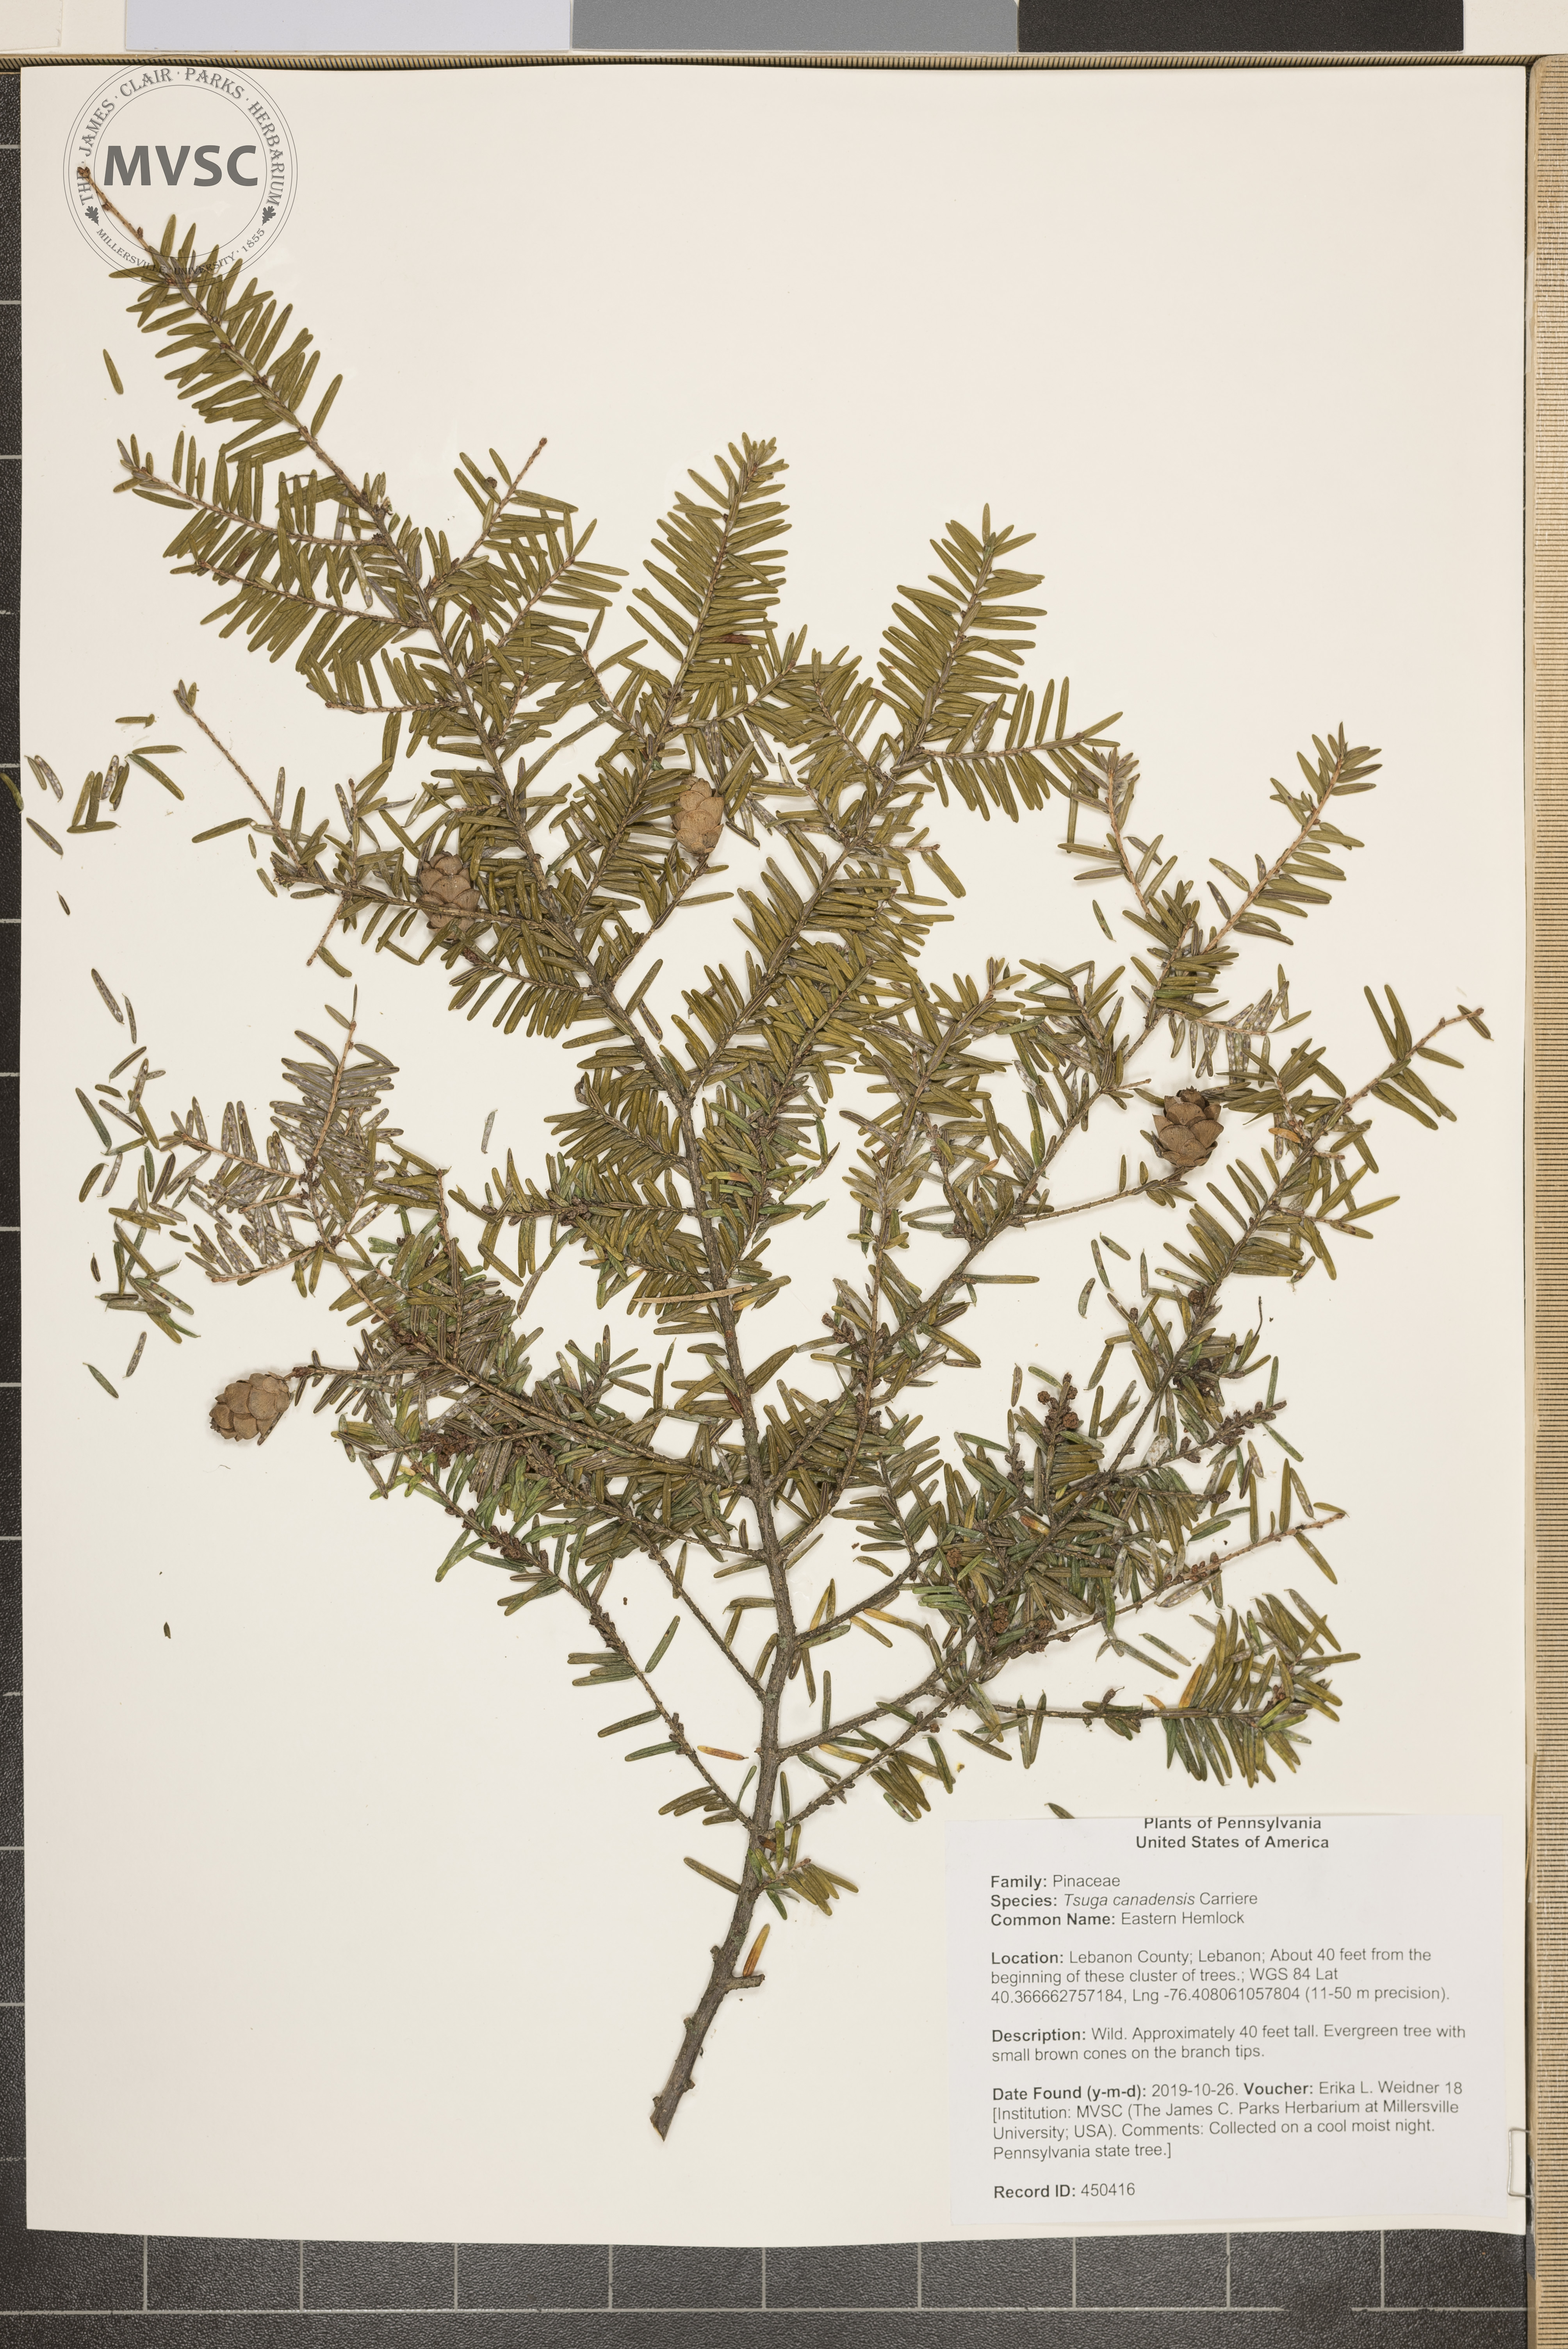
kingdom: Plantae
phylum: Tracheophyta
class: Pinopsida
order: Pinales
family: Pinaceae
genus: Tsuga
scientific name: Tsuga canadensis
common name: Eastern Hemlock
